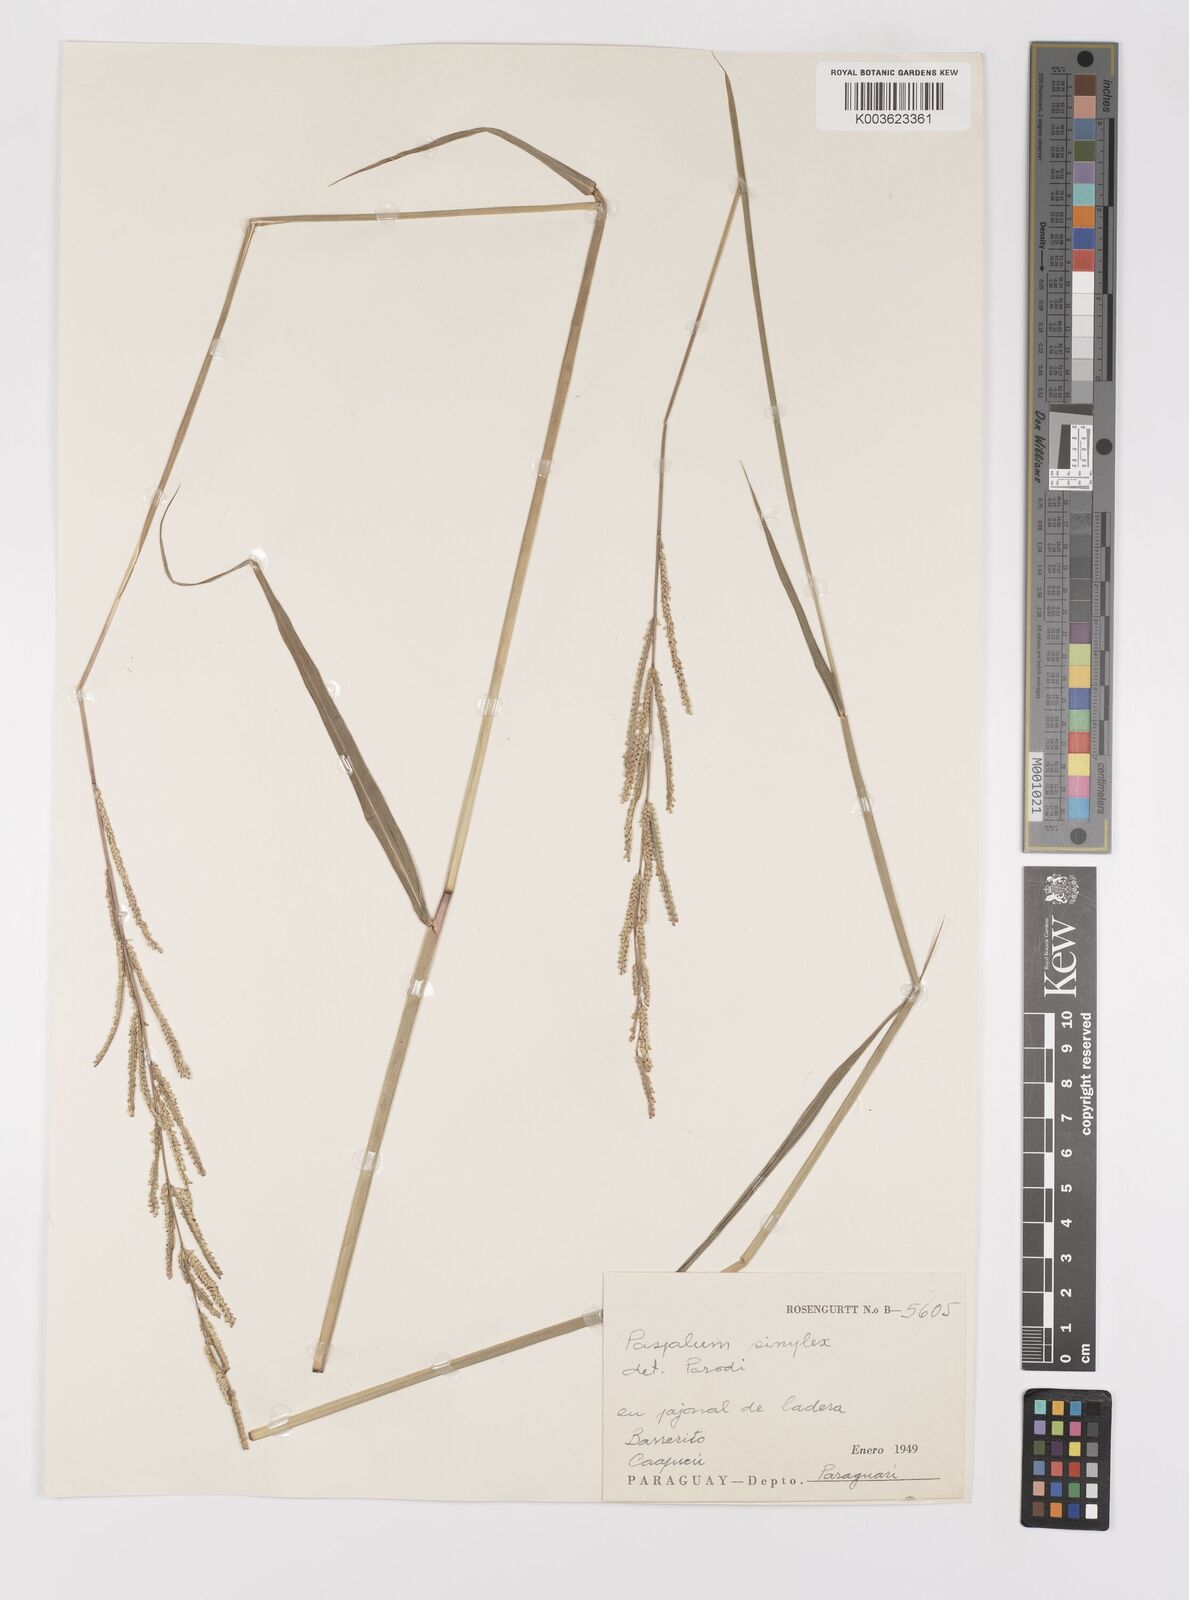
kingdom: Plantae
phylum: Tracheophyta
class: Liliopsida
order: Poales
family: Poaceae
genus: Paspalum
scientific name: Paspalum simplex
